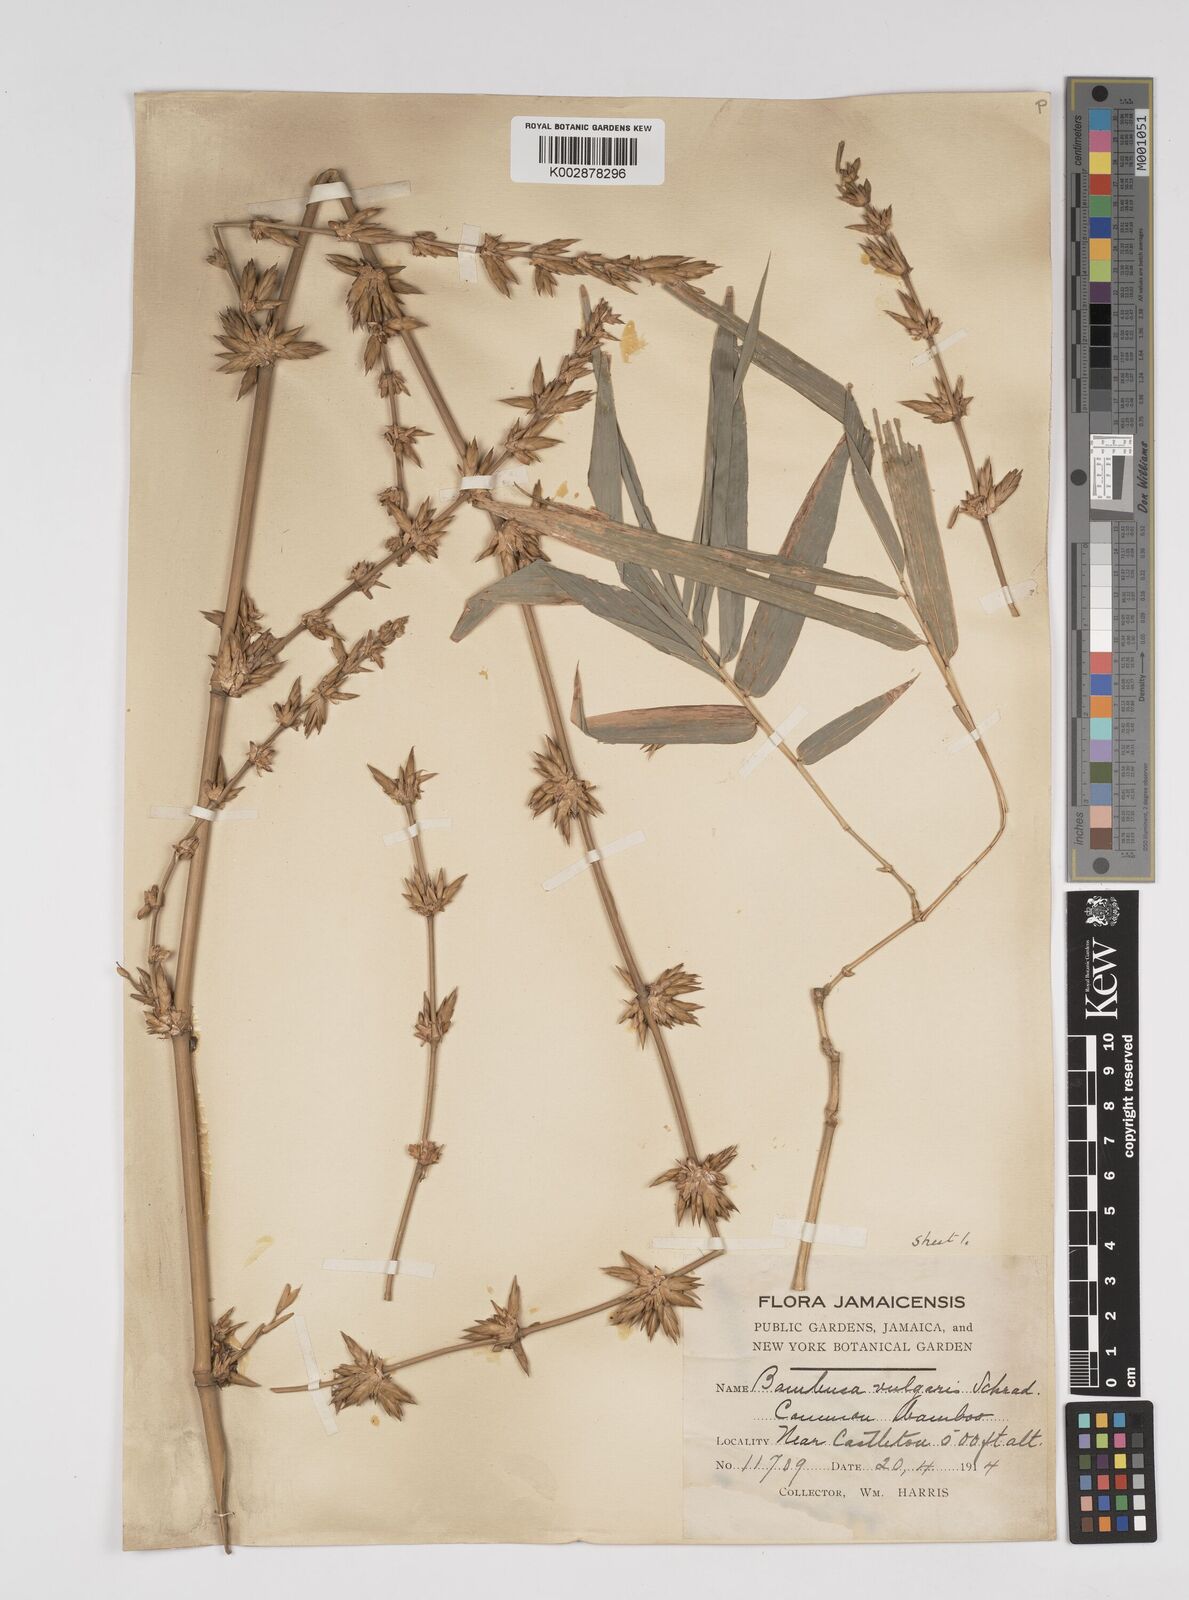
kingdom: Plantae
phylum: Tracheophyta
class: Liliopsida
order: Poales
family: Poaceae
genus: Bambusa
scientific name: Bambusa vulgaris
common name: Common bamboo
